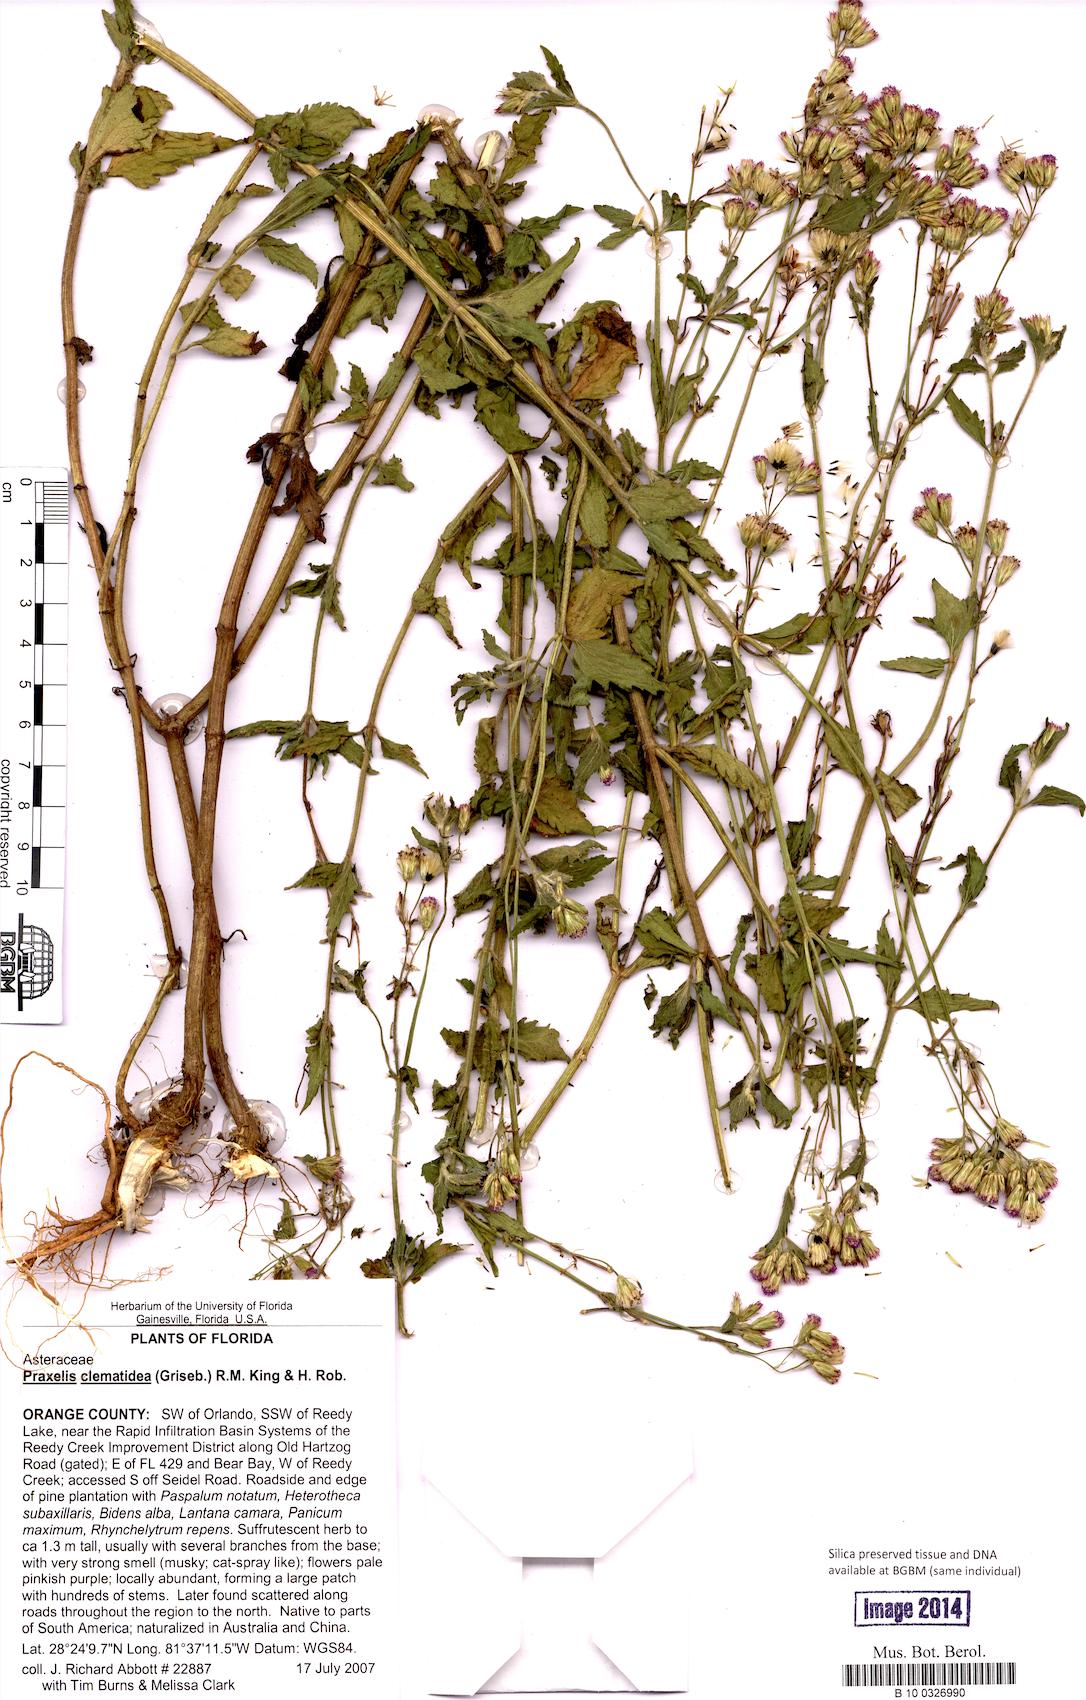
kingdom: Plantae
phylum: Tracheophyta
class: Magnoliopsida
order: Asterales
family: Asteraceae
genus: Praxelis
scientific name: Praxelis clematidea
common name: Praxelis
